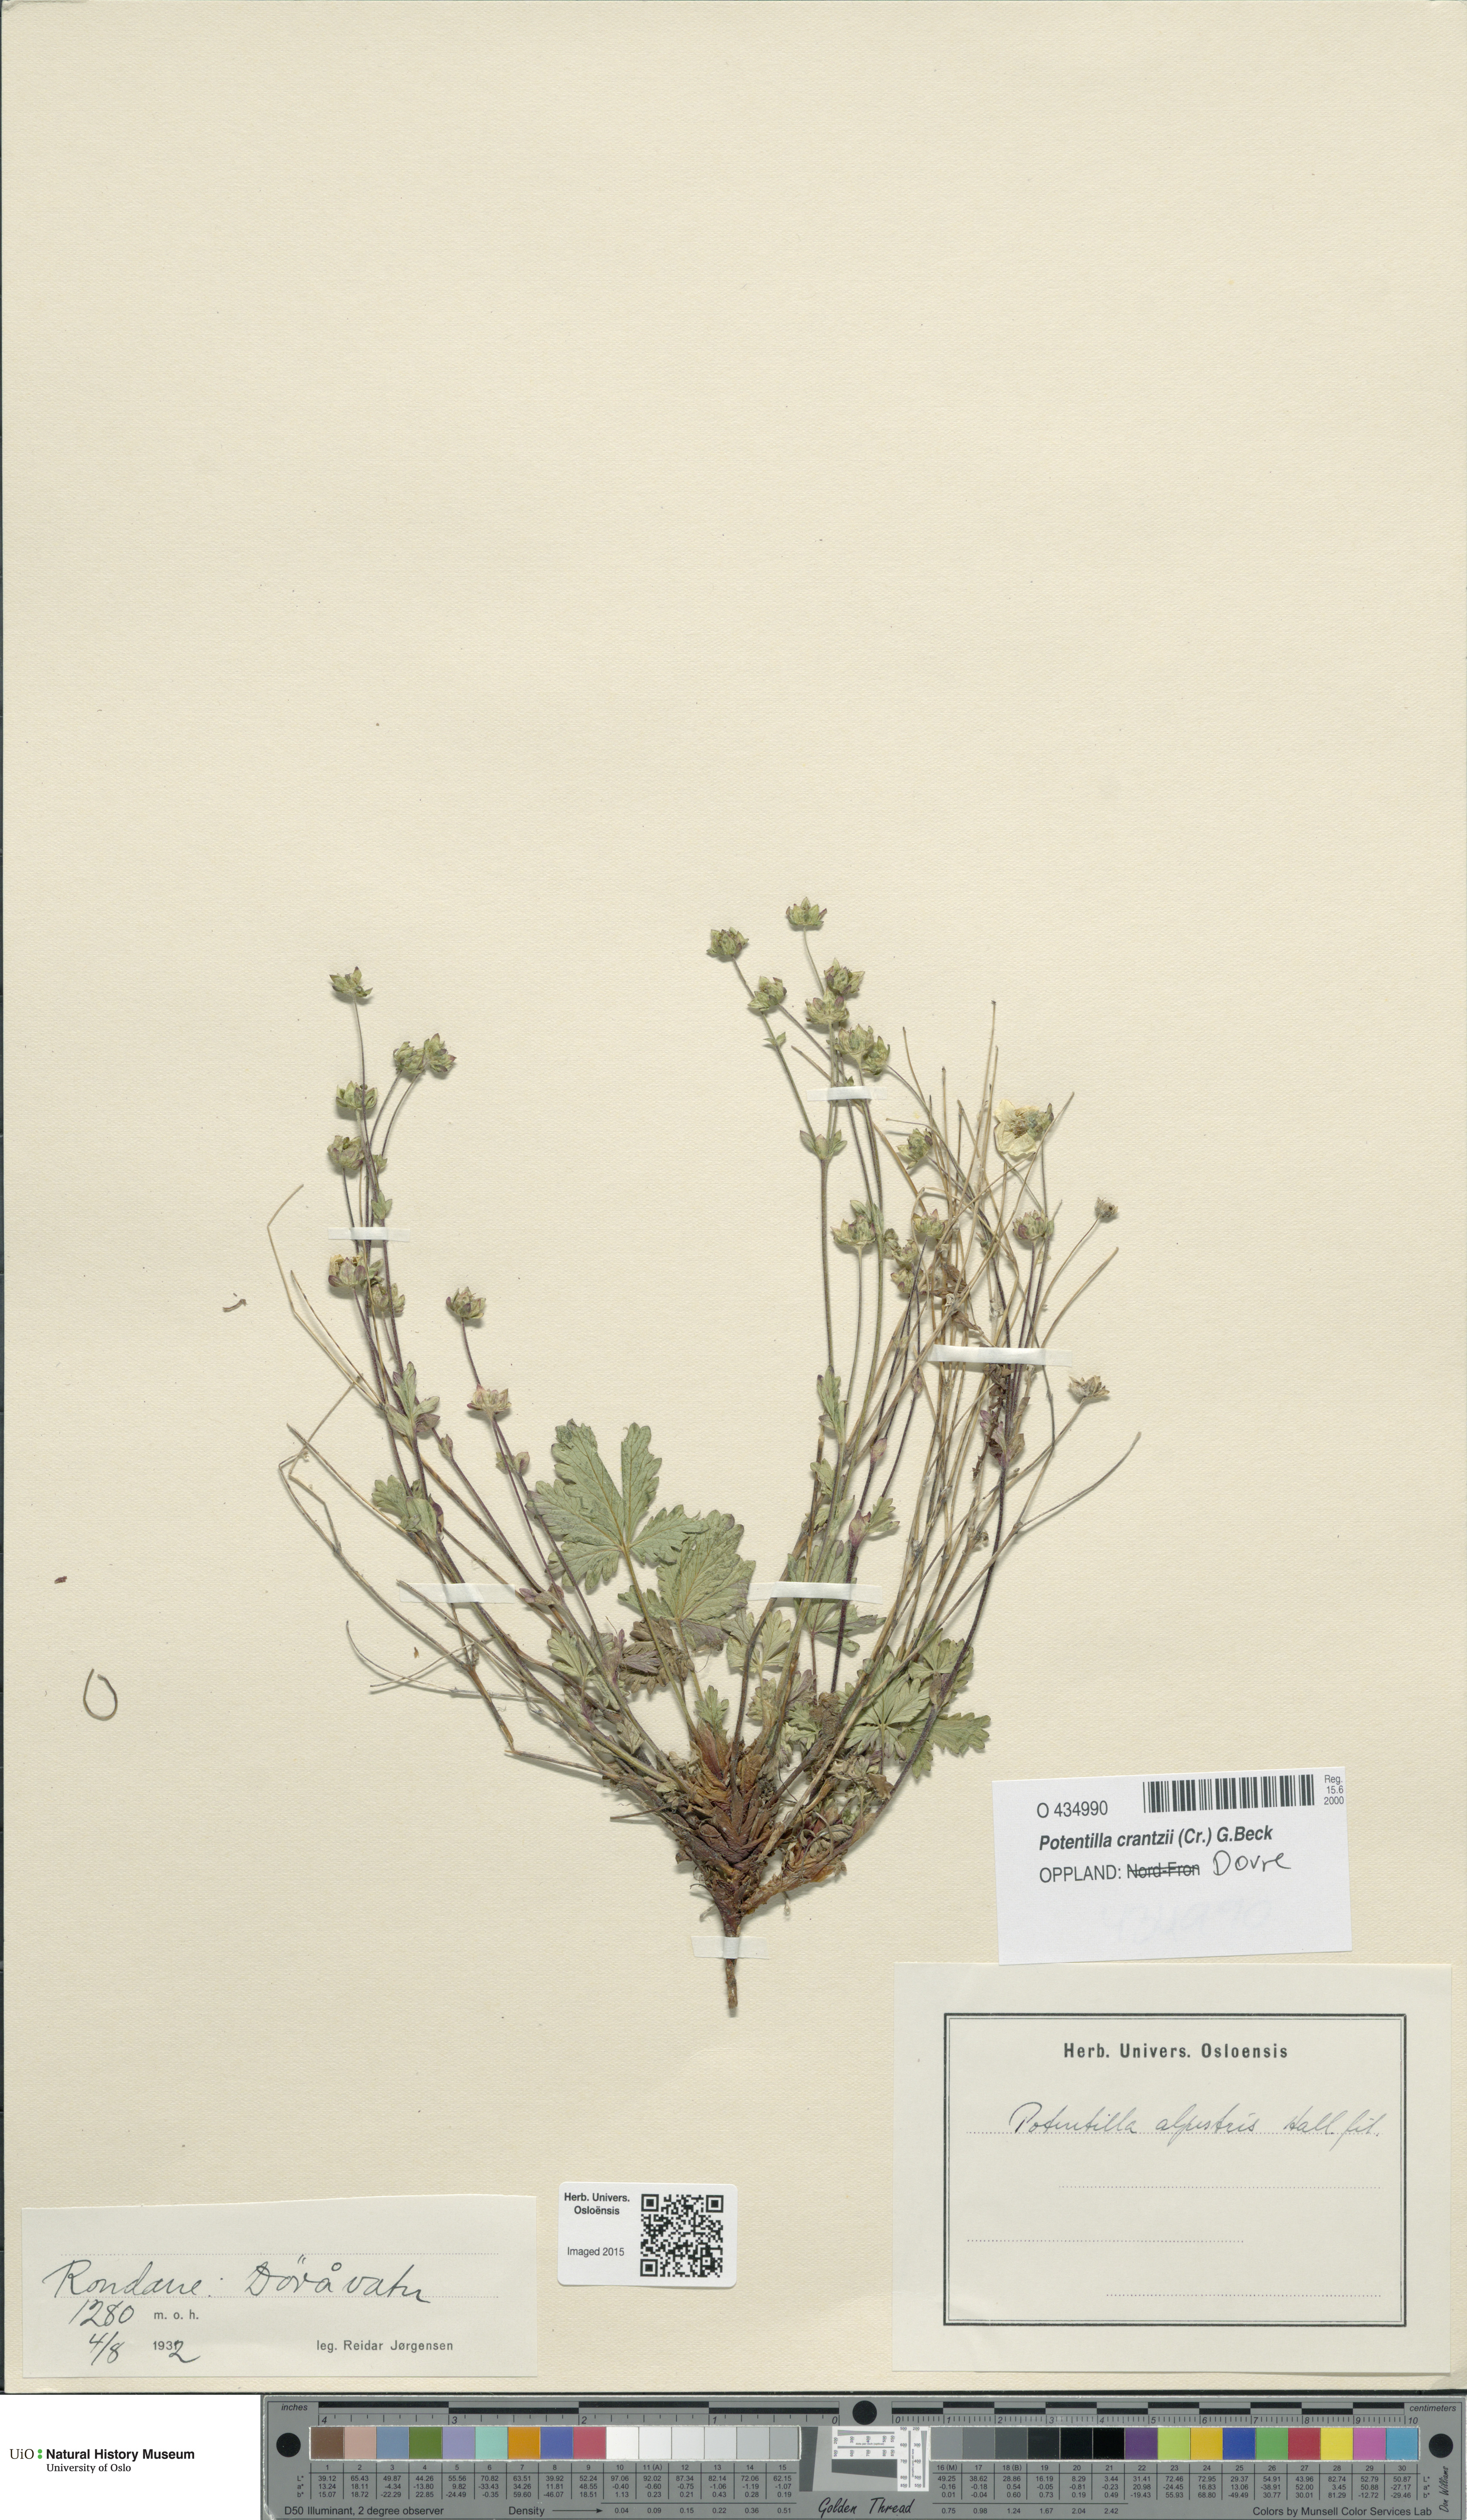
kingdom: Plantae
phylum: Tracheophyta
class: Magnoliopsida
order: Rosales
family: Rosaceae
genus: Potentilla
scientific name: Potentilla crantzii
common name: Alpine cinquefoil
